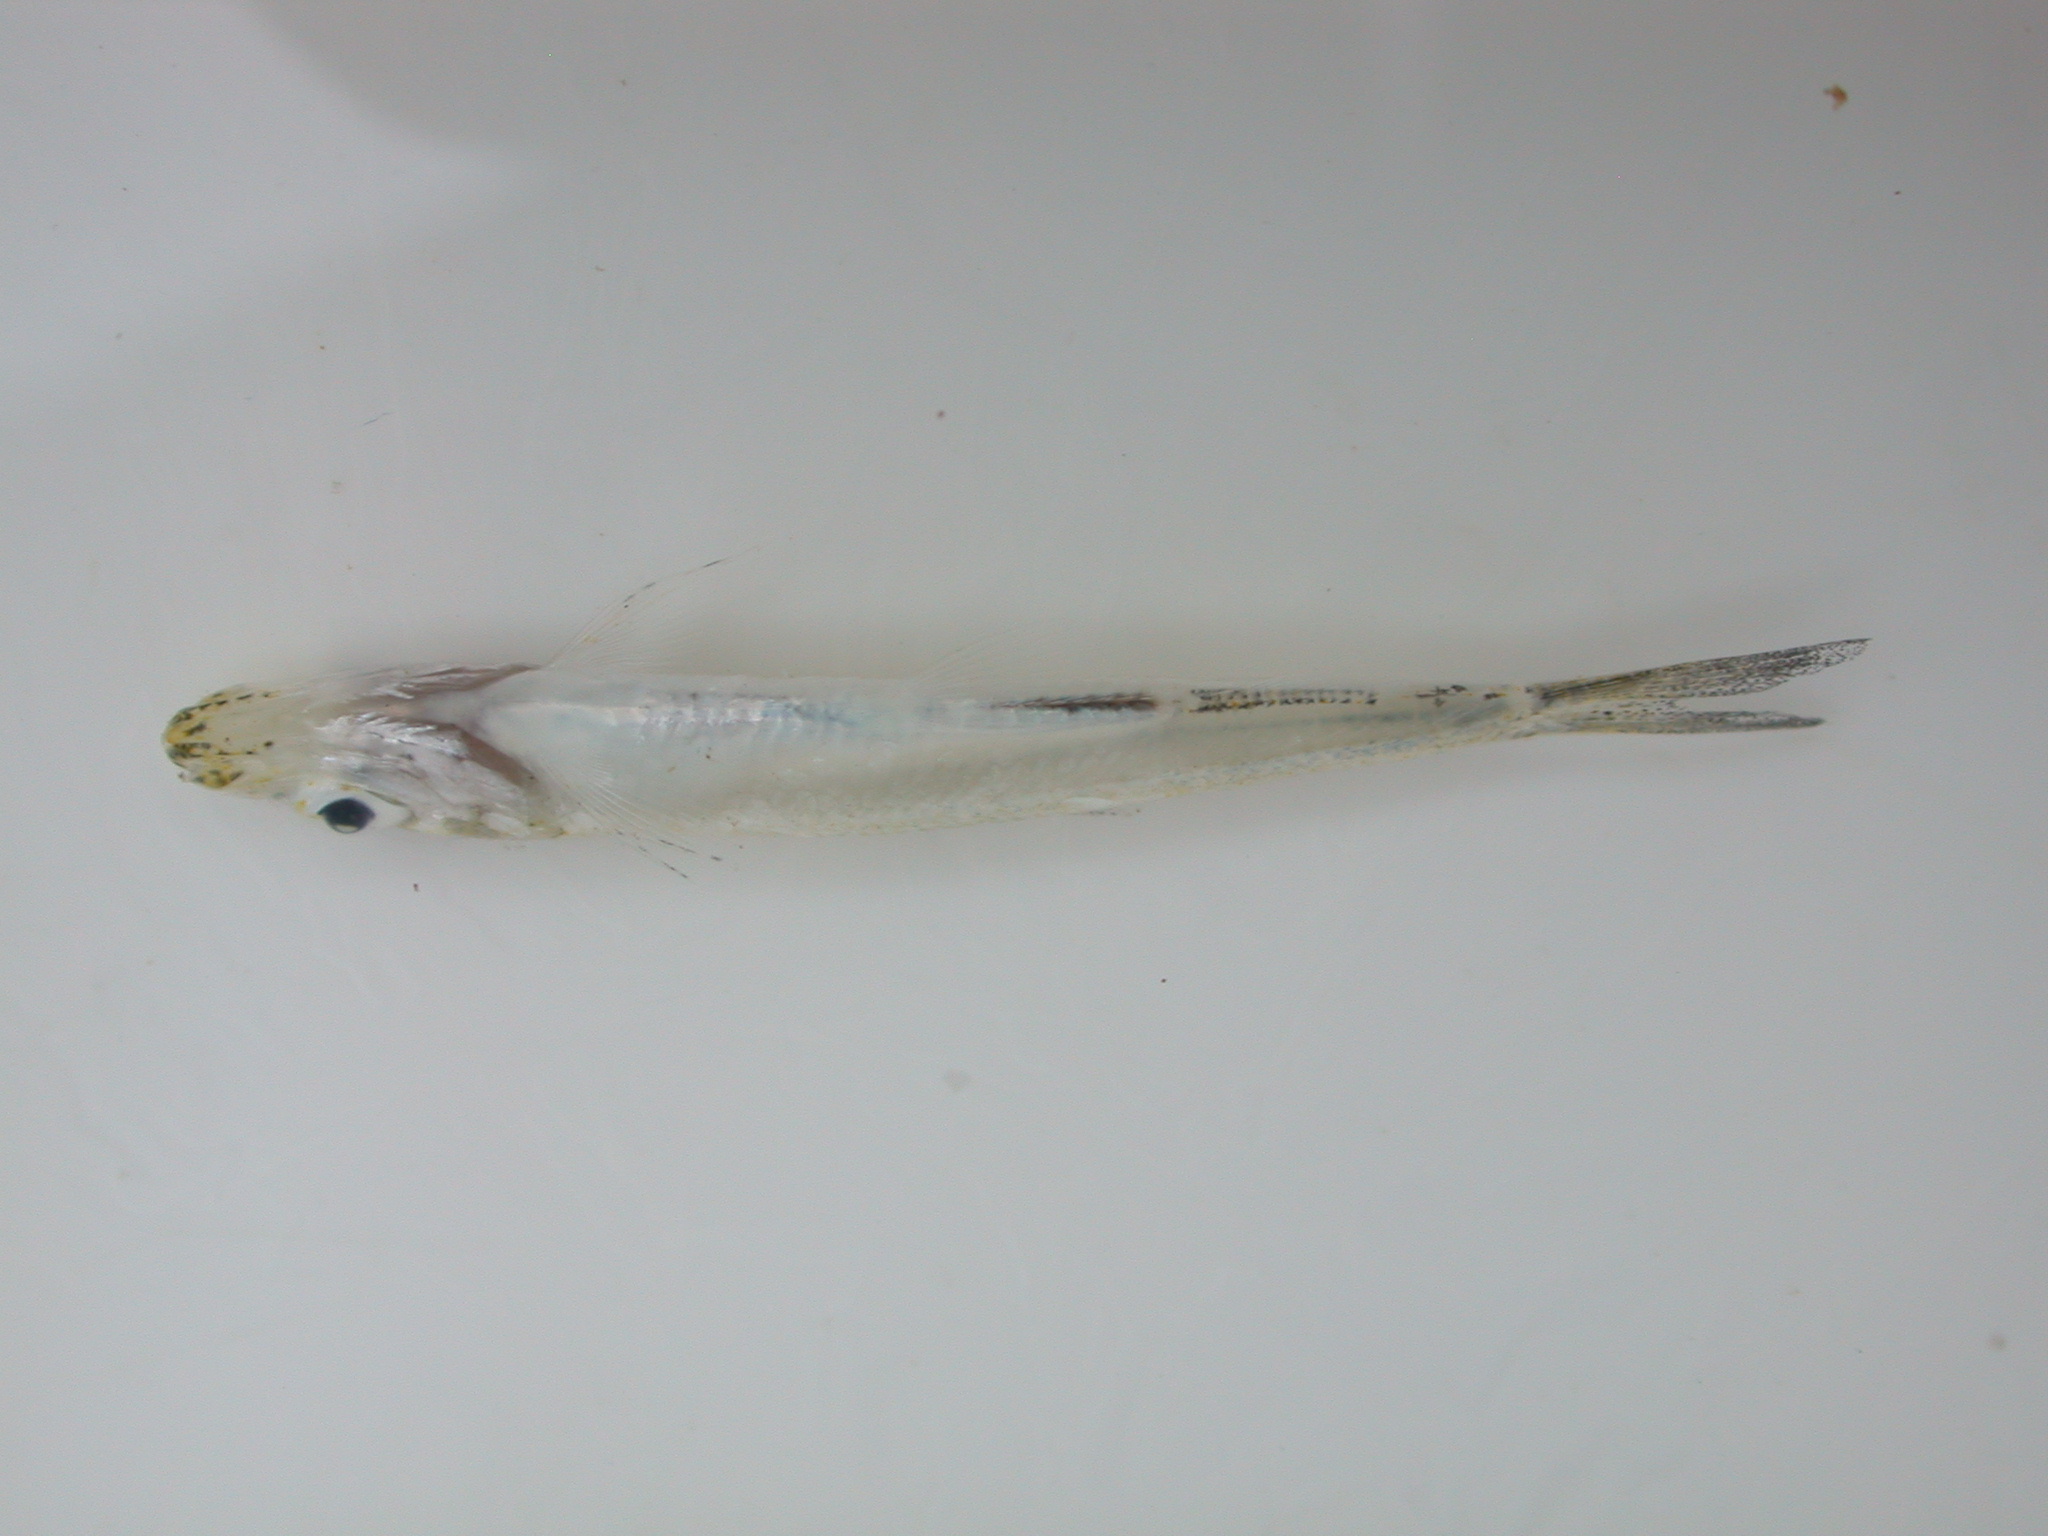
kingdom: Animalia
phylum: Chordata
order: Clupeiformes
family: Clupeidae
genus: Limnothrissa
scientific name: Limnothrissa miodon
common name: Lake tanganyika sardine
